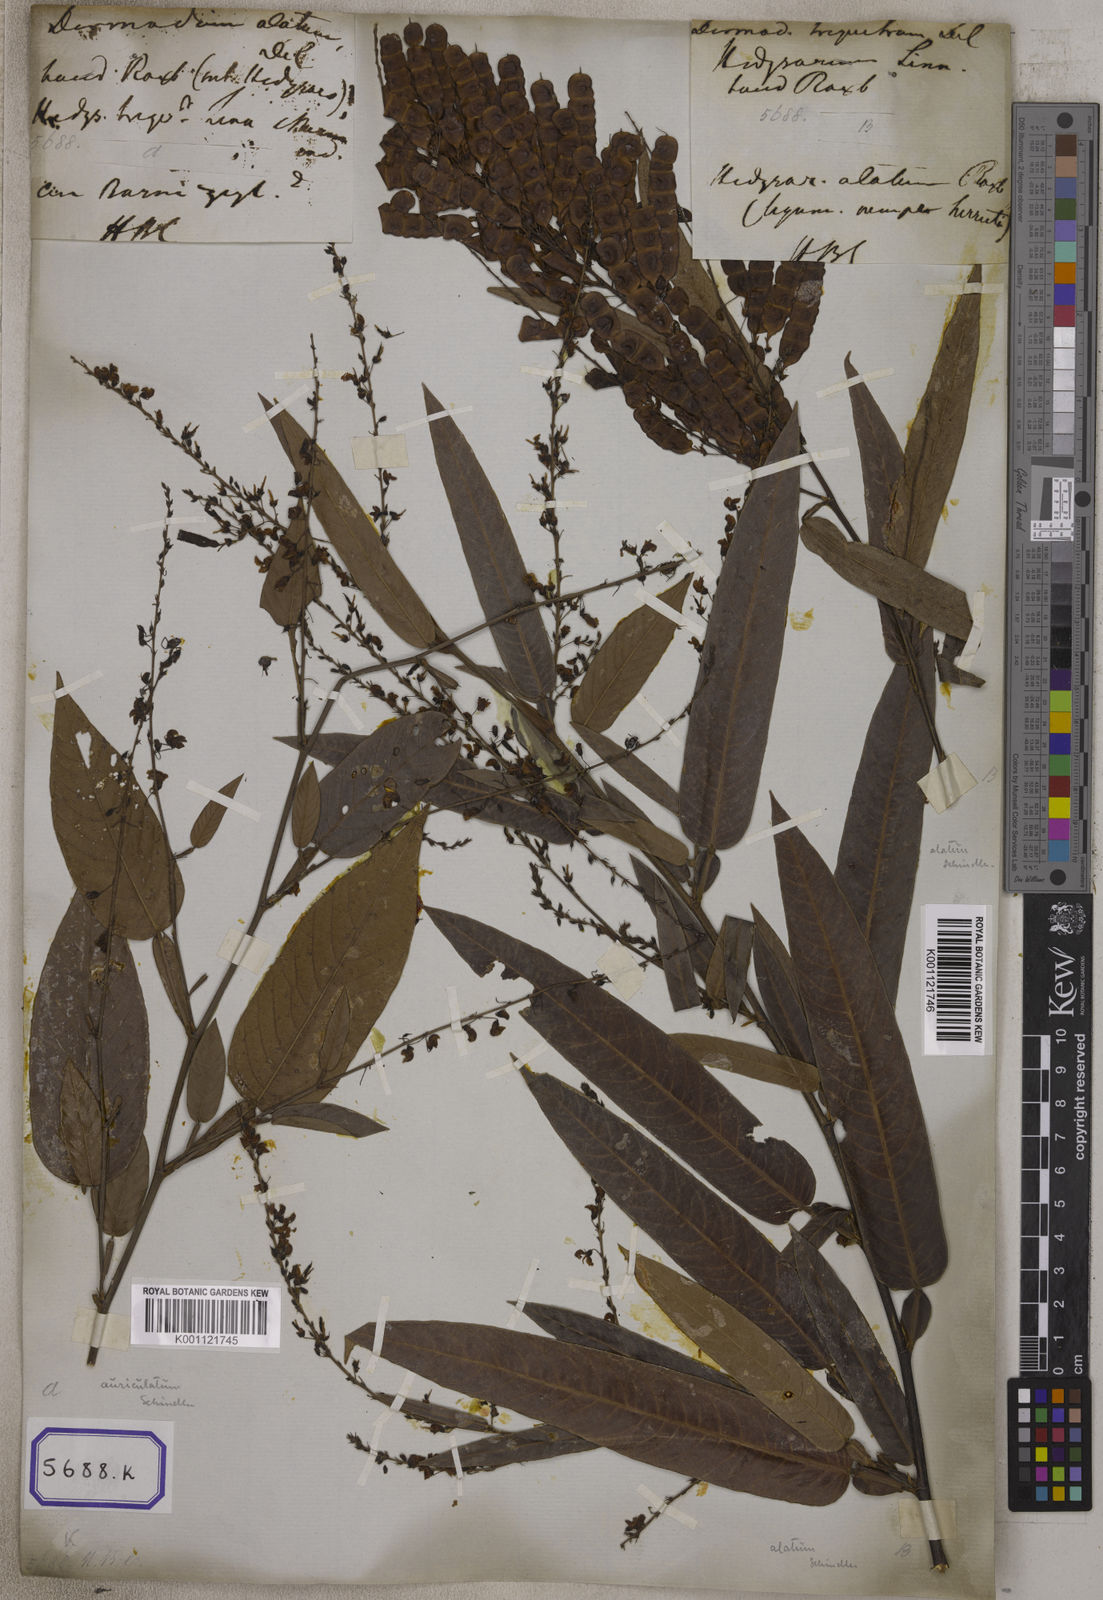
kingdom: Plantae
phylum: Tracheophyta
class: Magnoliopsida
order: Fabales
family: Fabaceae
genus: Tadehagi
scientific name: Tadehagi triquetrum
